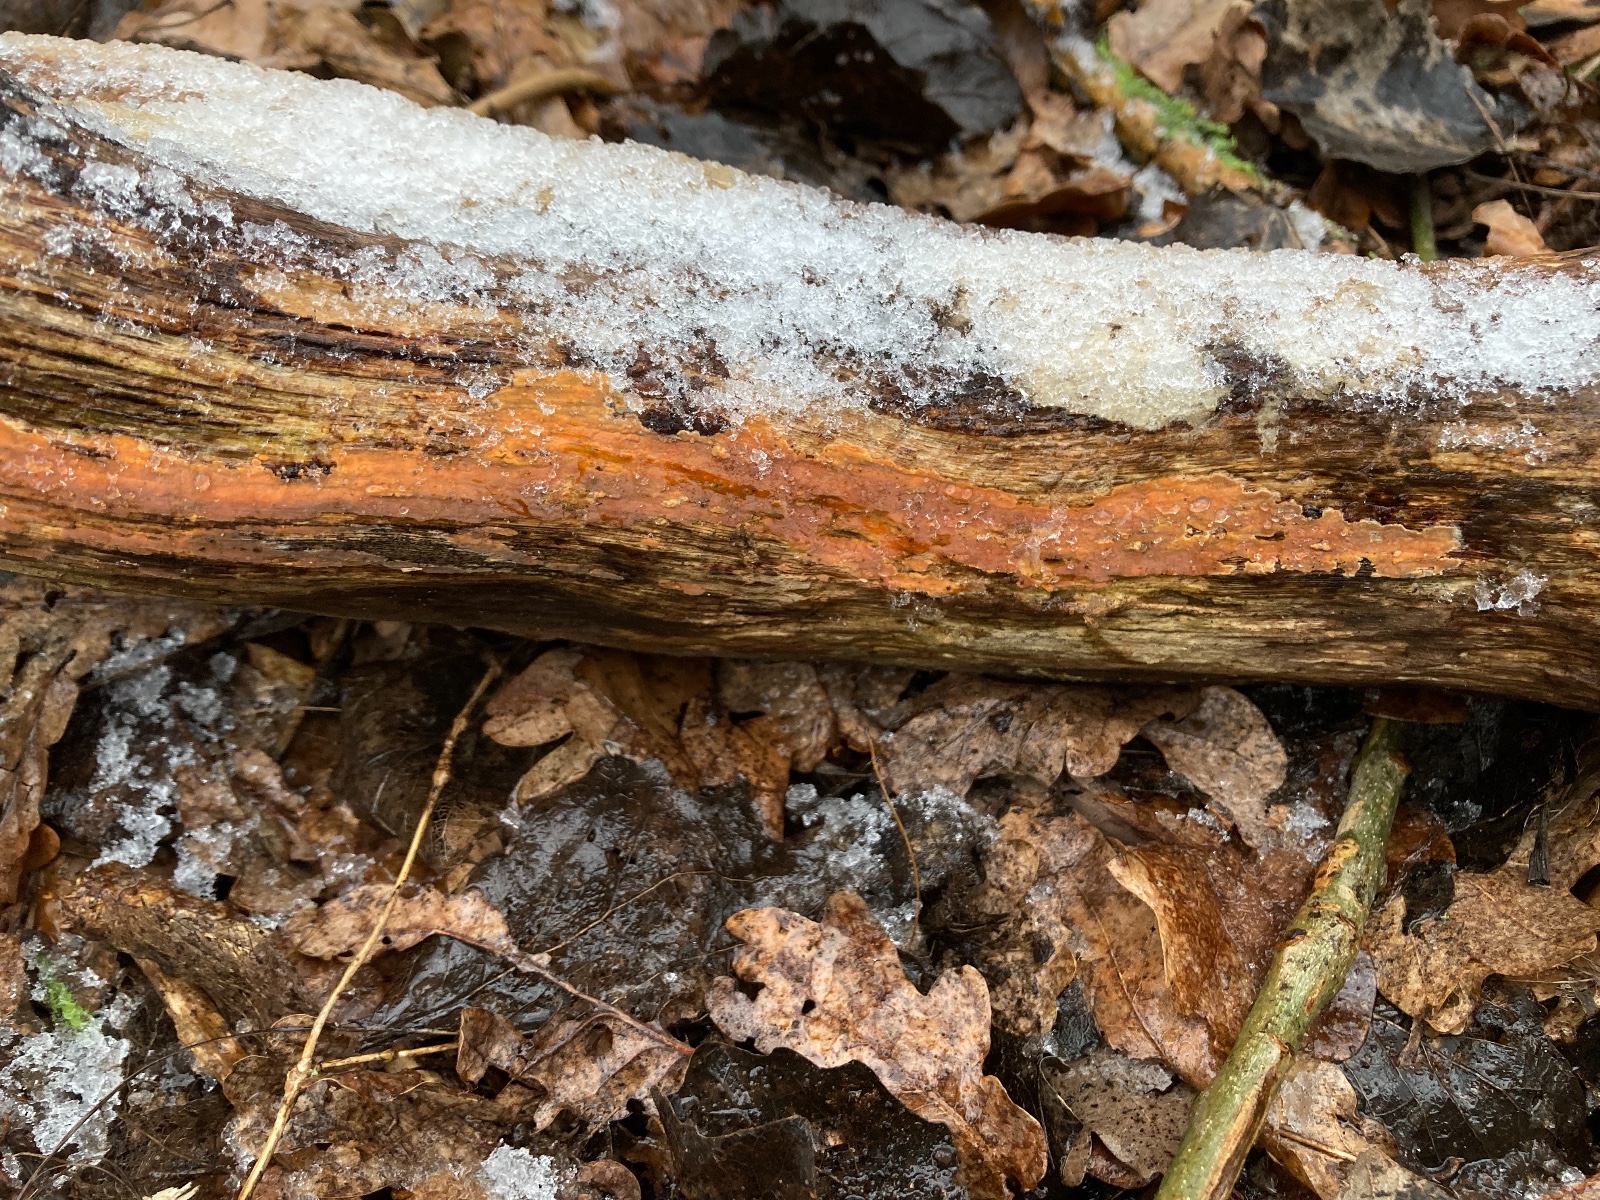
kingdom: Fungi
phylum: Basidiomycota
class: Agaricomycetes
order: Russulales
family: Peniophoraceae
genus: Peniophora
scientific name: Peniophora incarnata
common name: laksefarvet voksskind
